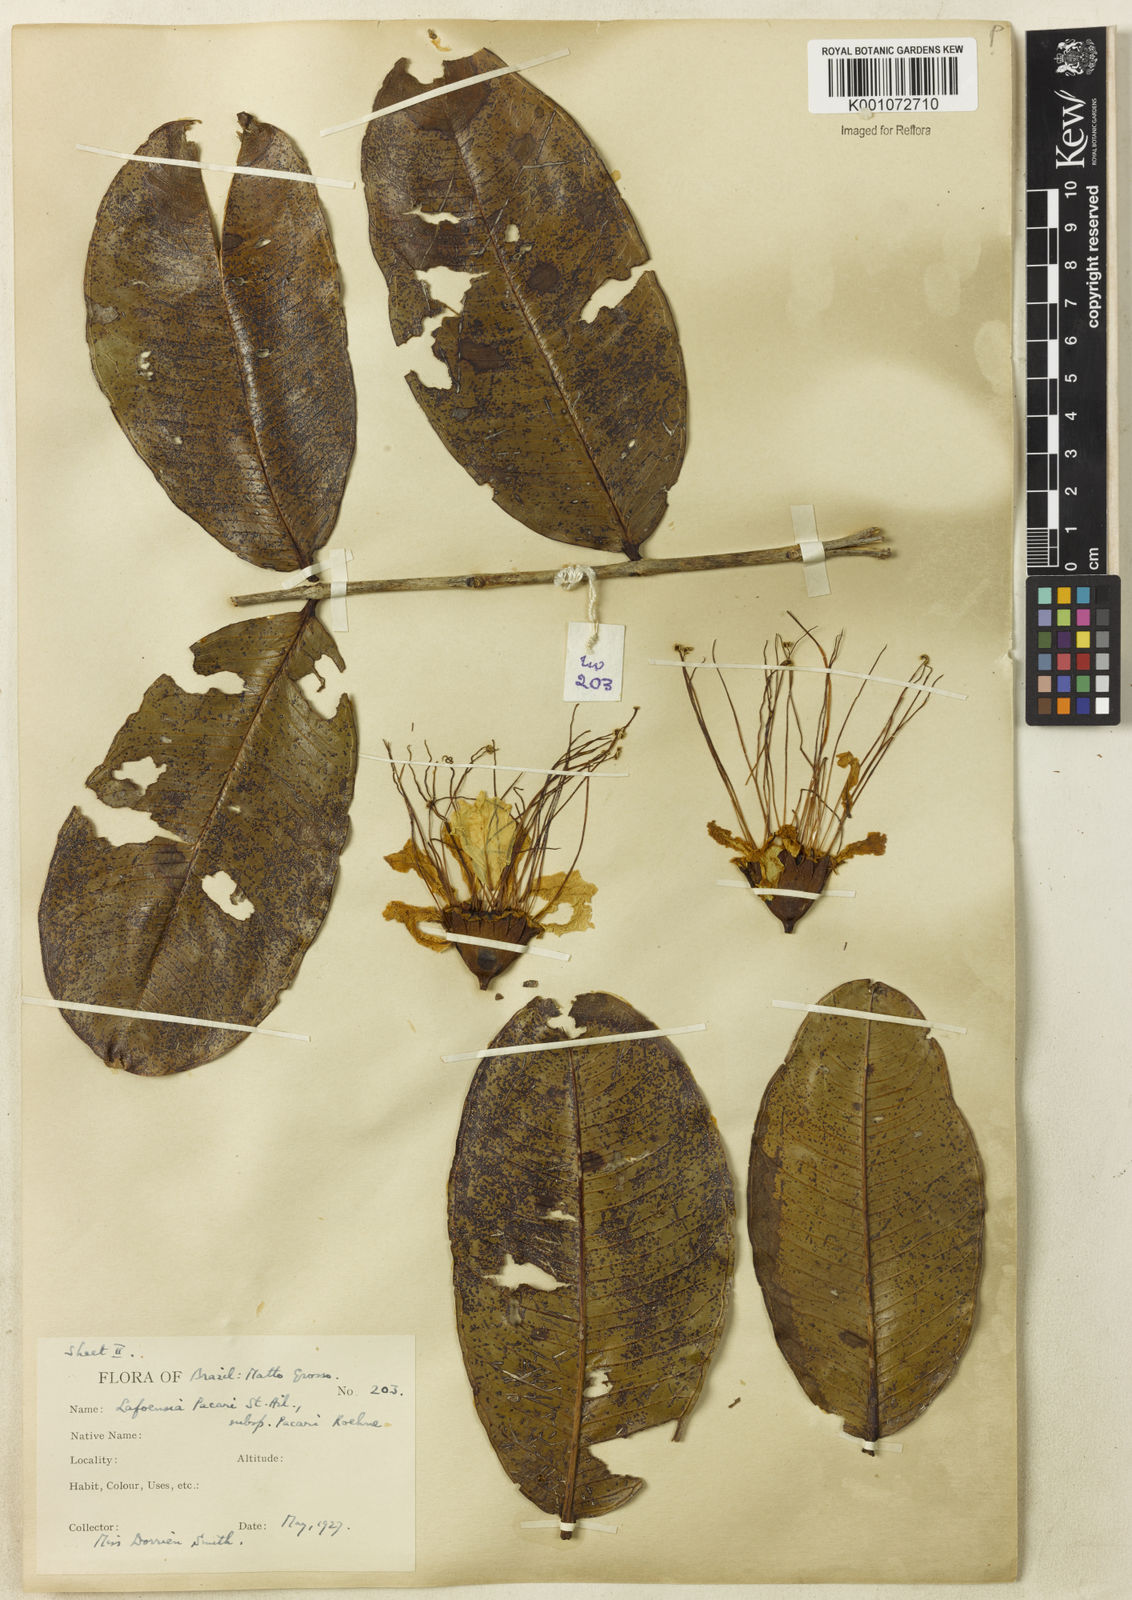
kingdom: Plantae
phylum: Tracheophyta
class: Magnoliopsida
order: Myrtales
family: Lythraceae
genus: Lafoensia
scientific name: Lafoensia pacari
